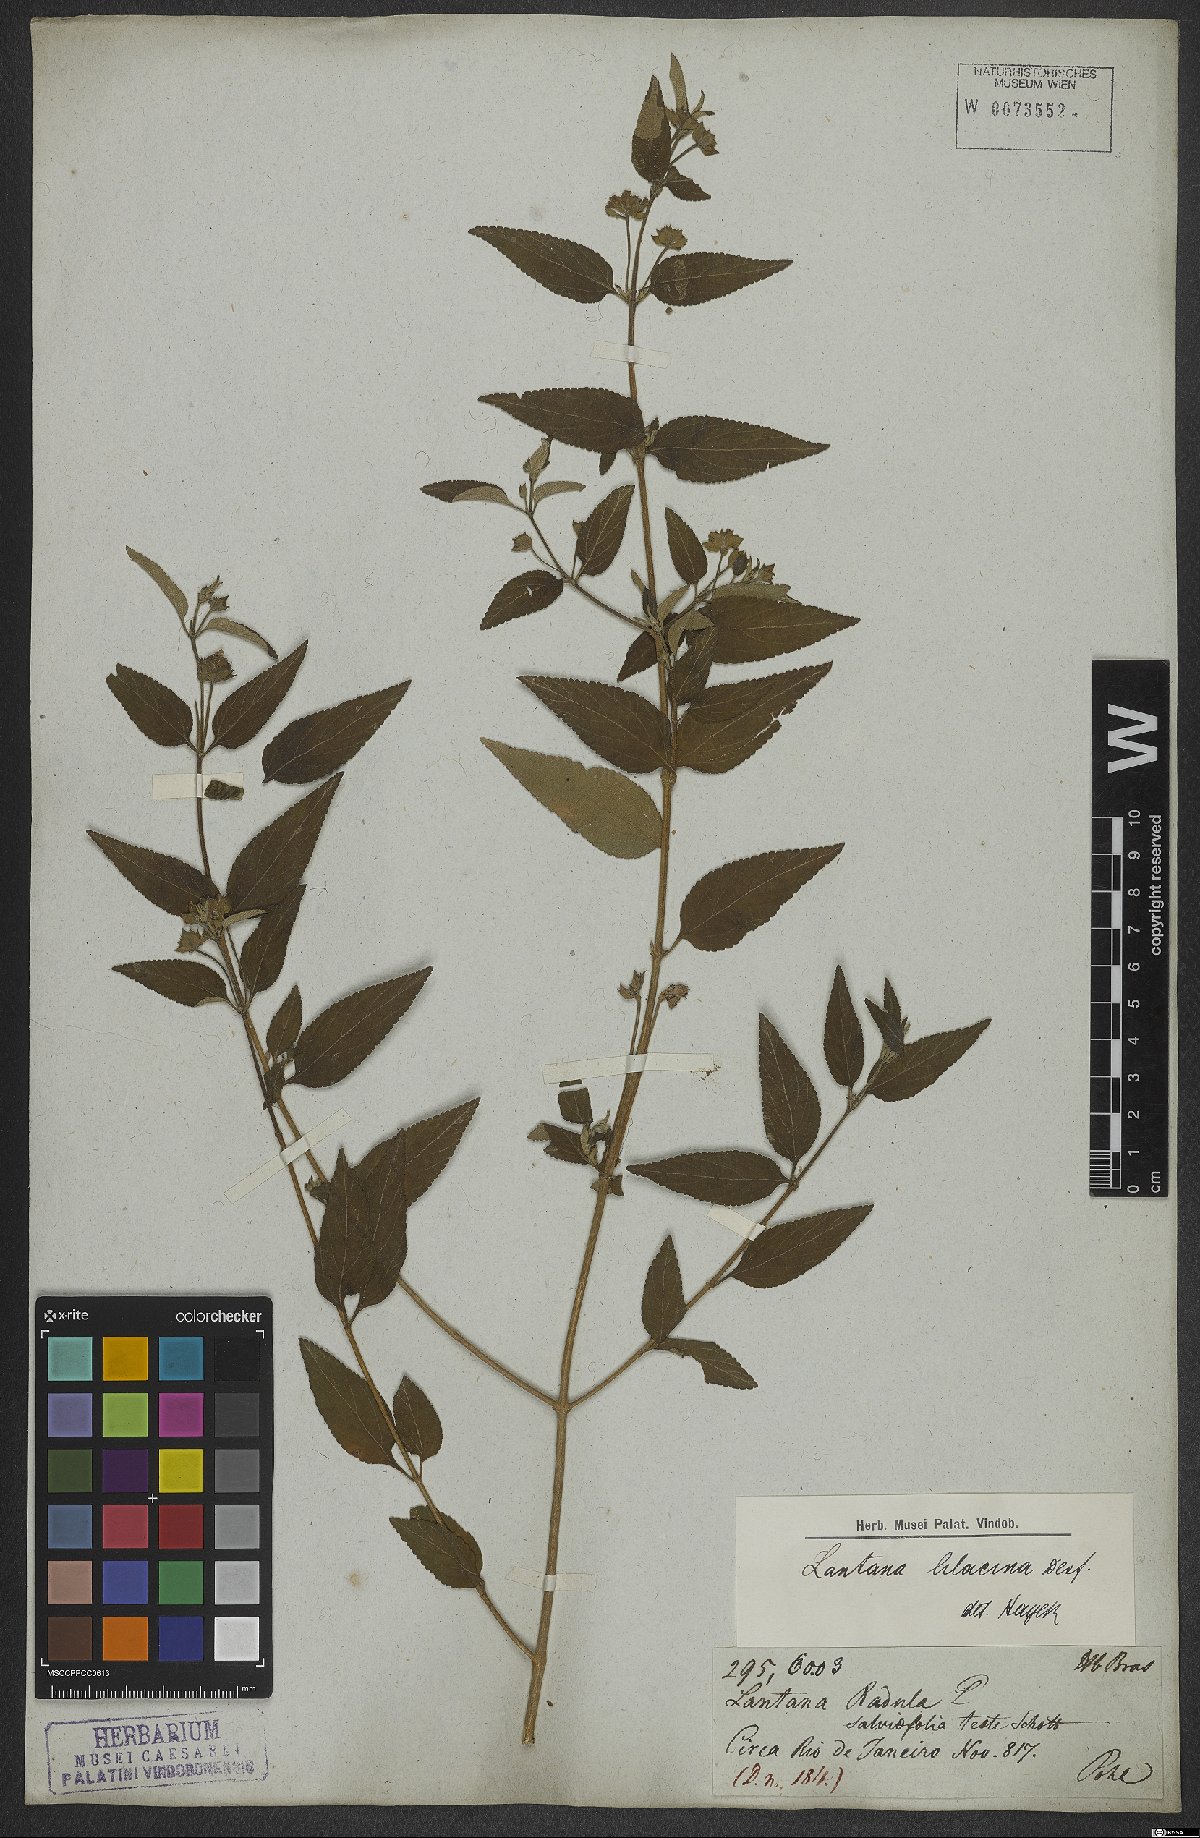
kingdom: Plantae
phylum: Tracheophyta
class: Magnoliopsida
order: Lamiales
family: Verbenaceae
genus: Lantana
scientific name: Lantana fucata
